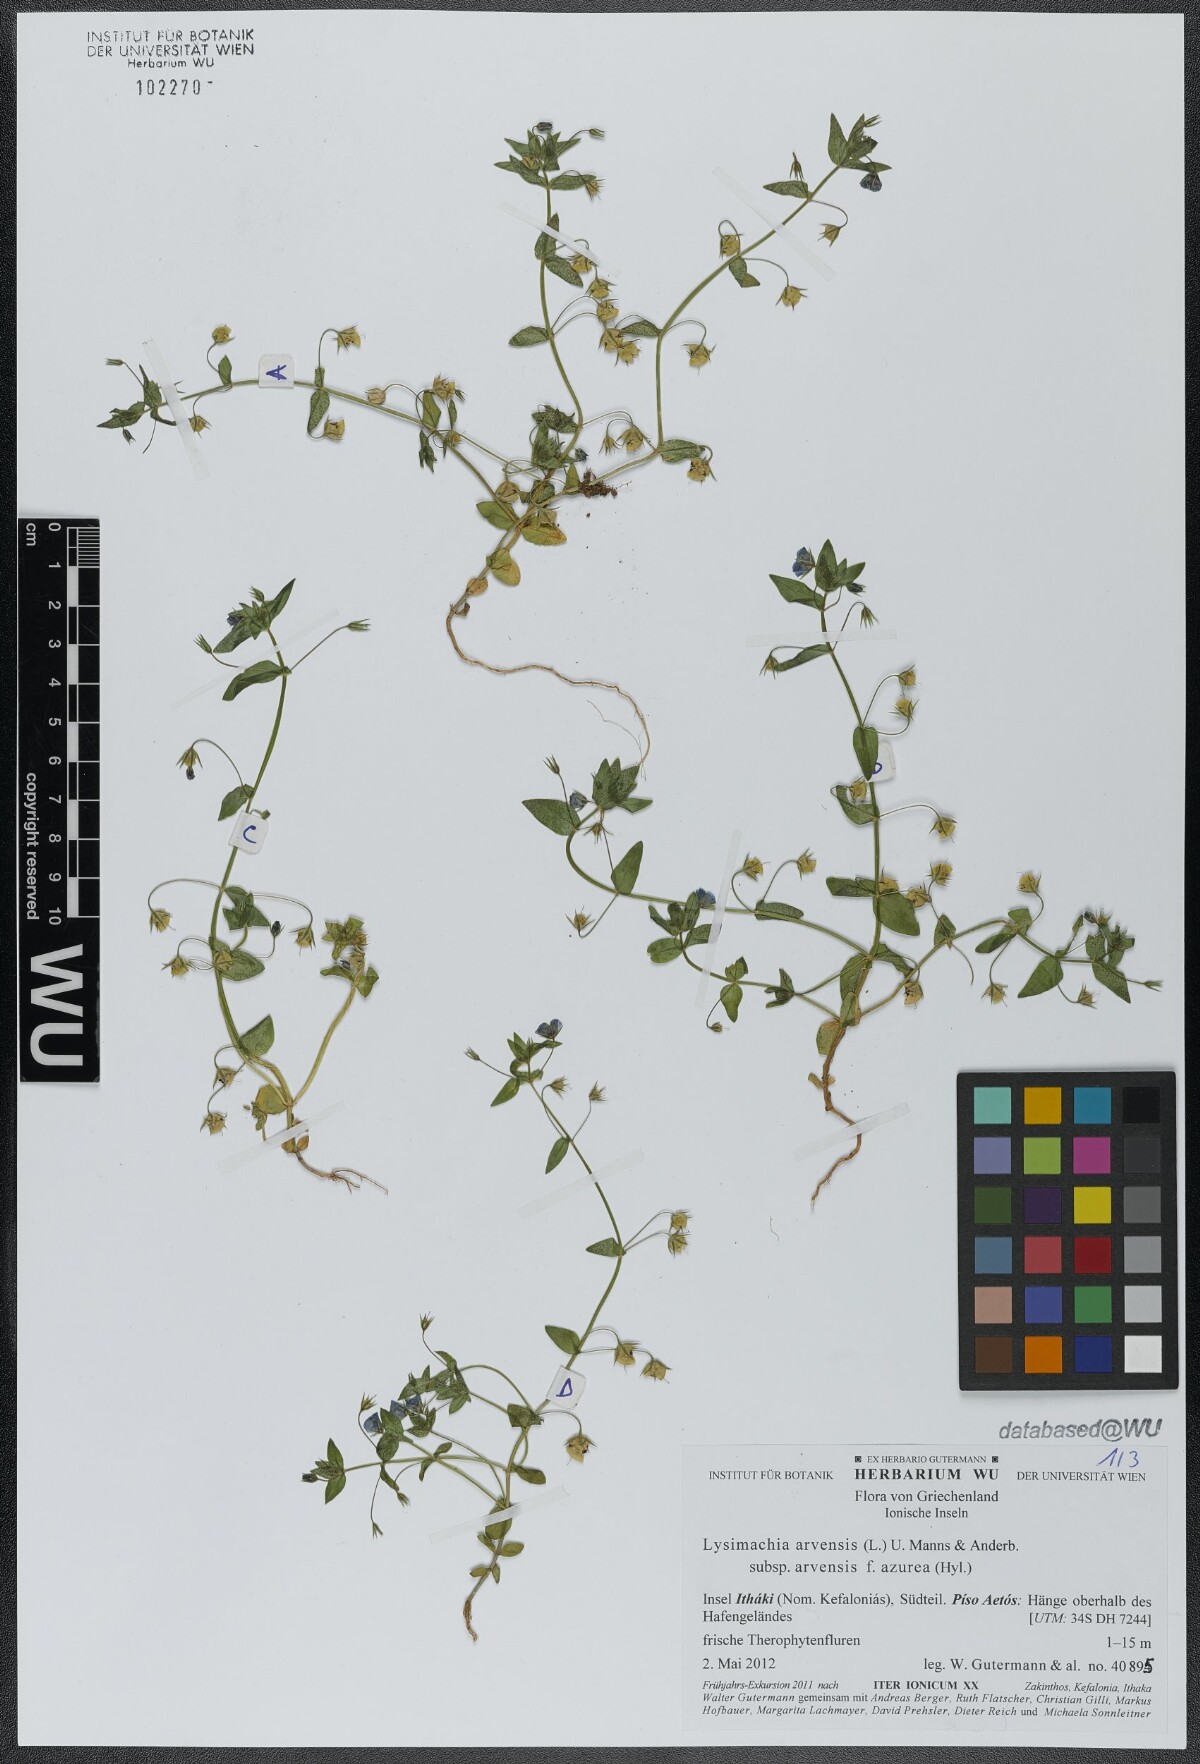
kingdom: Plantae
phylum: Tracheophyta
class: Magnoliopsida
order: Ericales
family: Primulaceae
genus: Lysimachia
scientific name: Lysimachia arvensis
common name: Scarlet pimpernel
